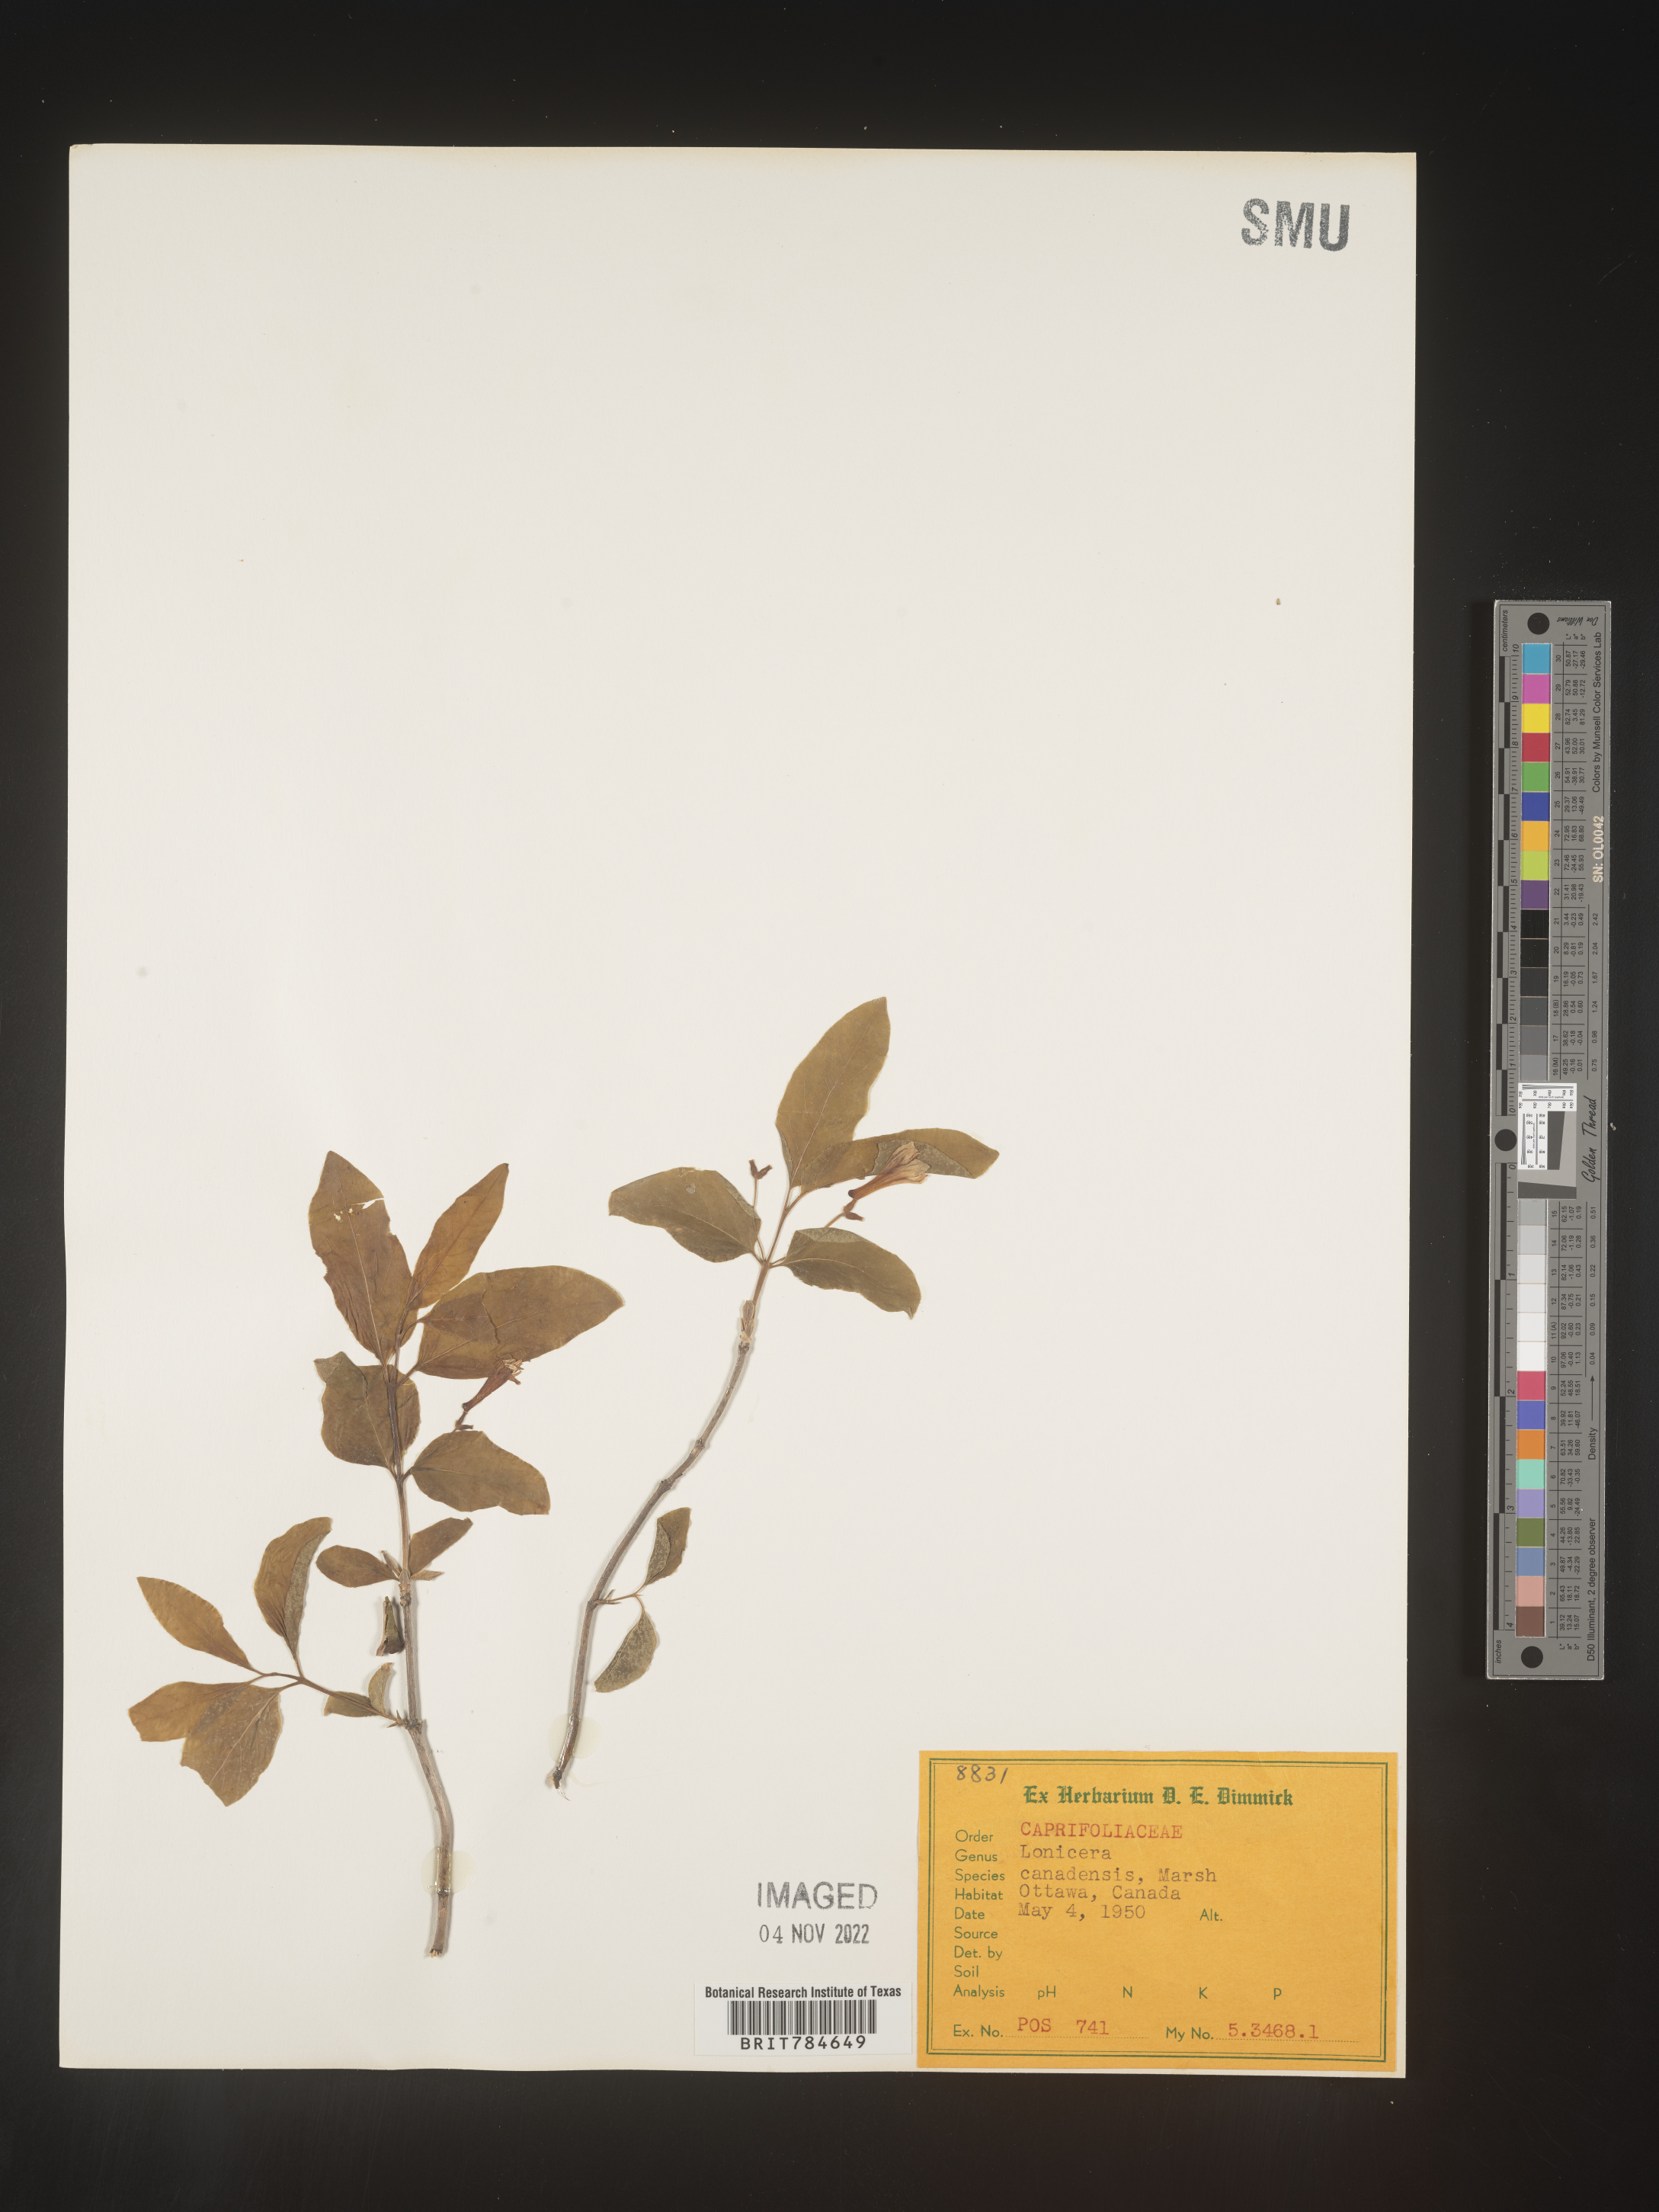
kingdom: Plantae
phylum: Tracheophyta
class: Magnoliopsida
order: Dipsacales
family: Caprifoliaceae
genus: Lonicera
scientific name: Lonicera
